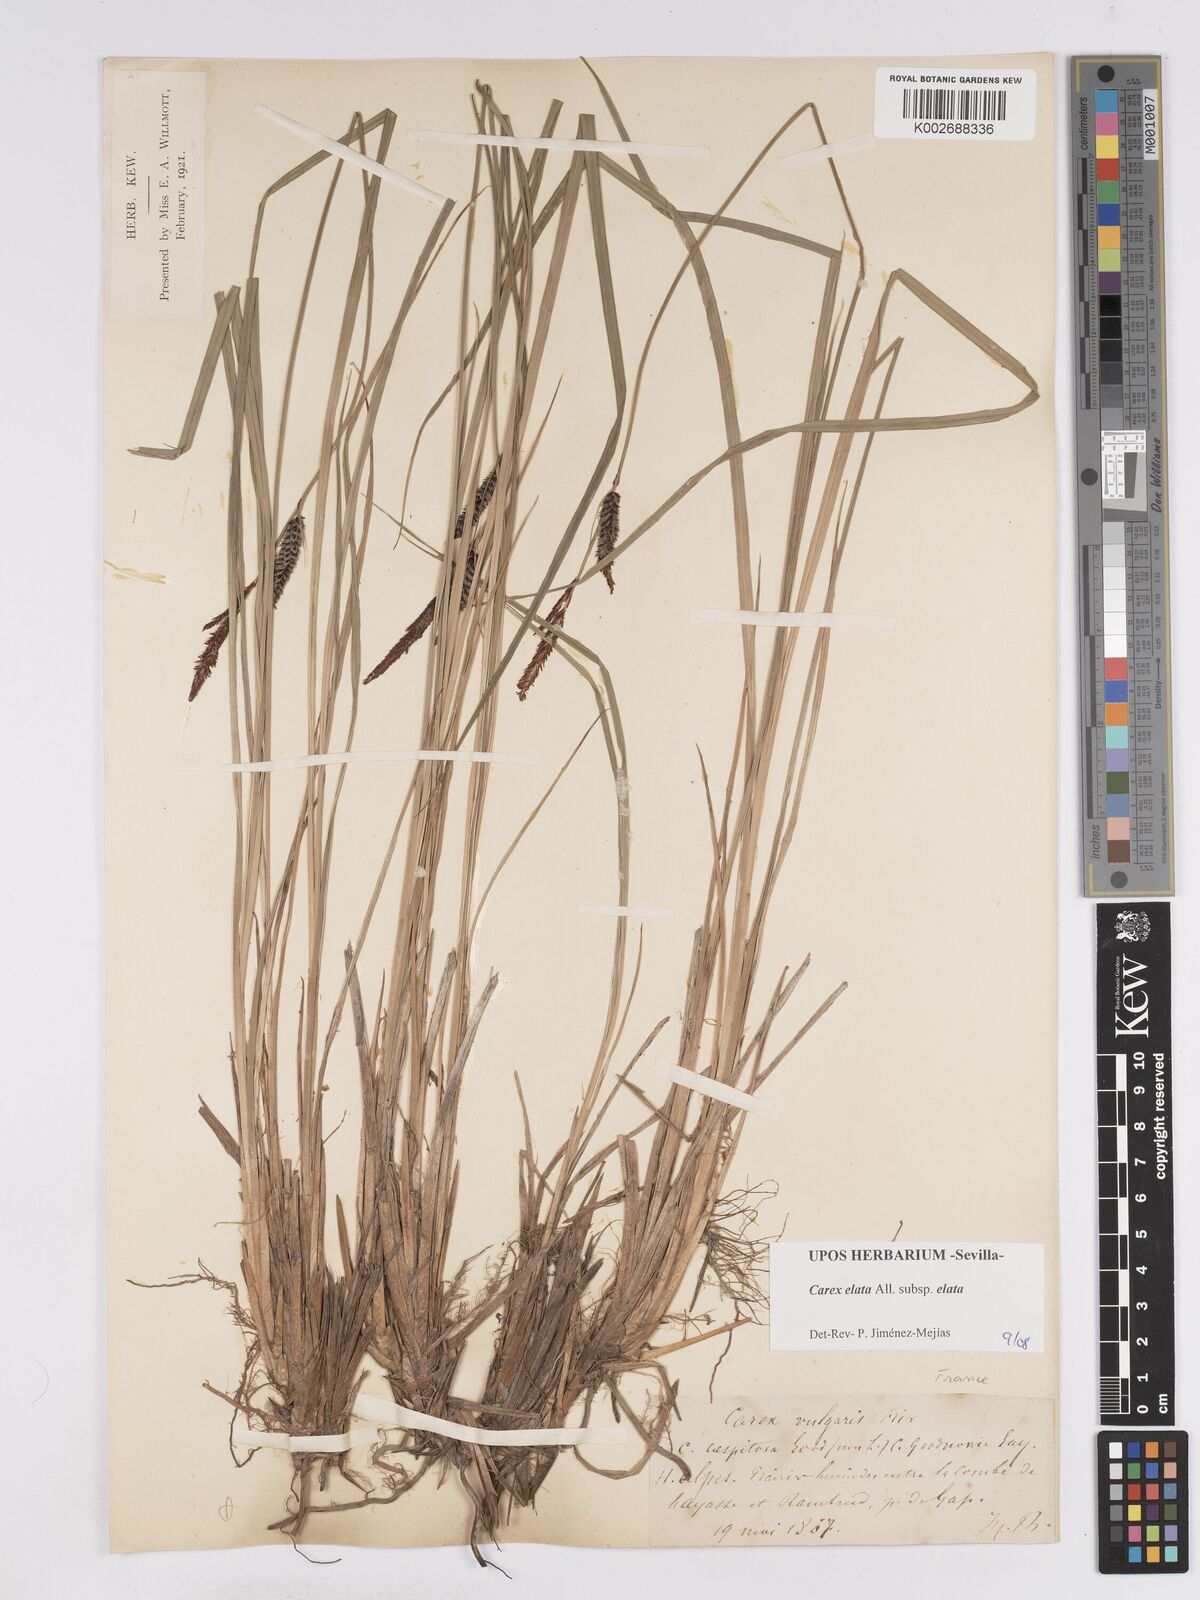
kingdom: Plantae
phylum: Tracheophyta
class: Liliopsida
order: Poales
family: Cyperaceae
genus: Carex
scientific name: Carex elata
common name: Tufted sedge
